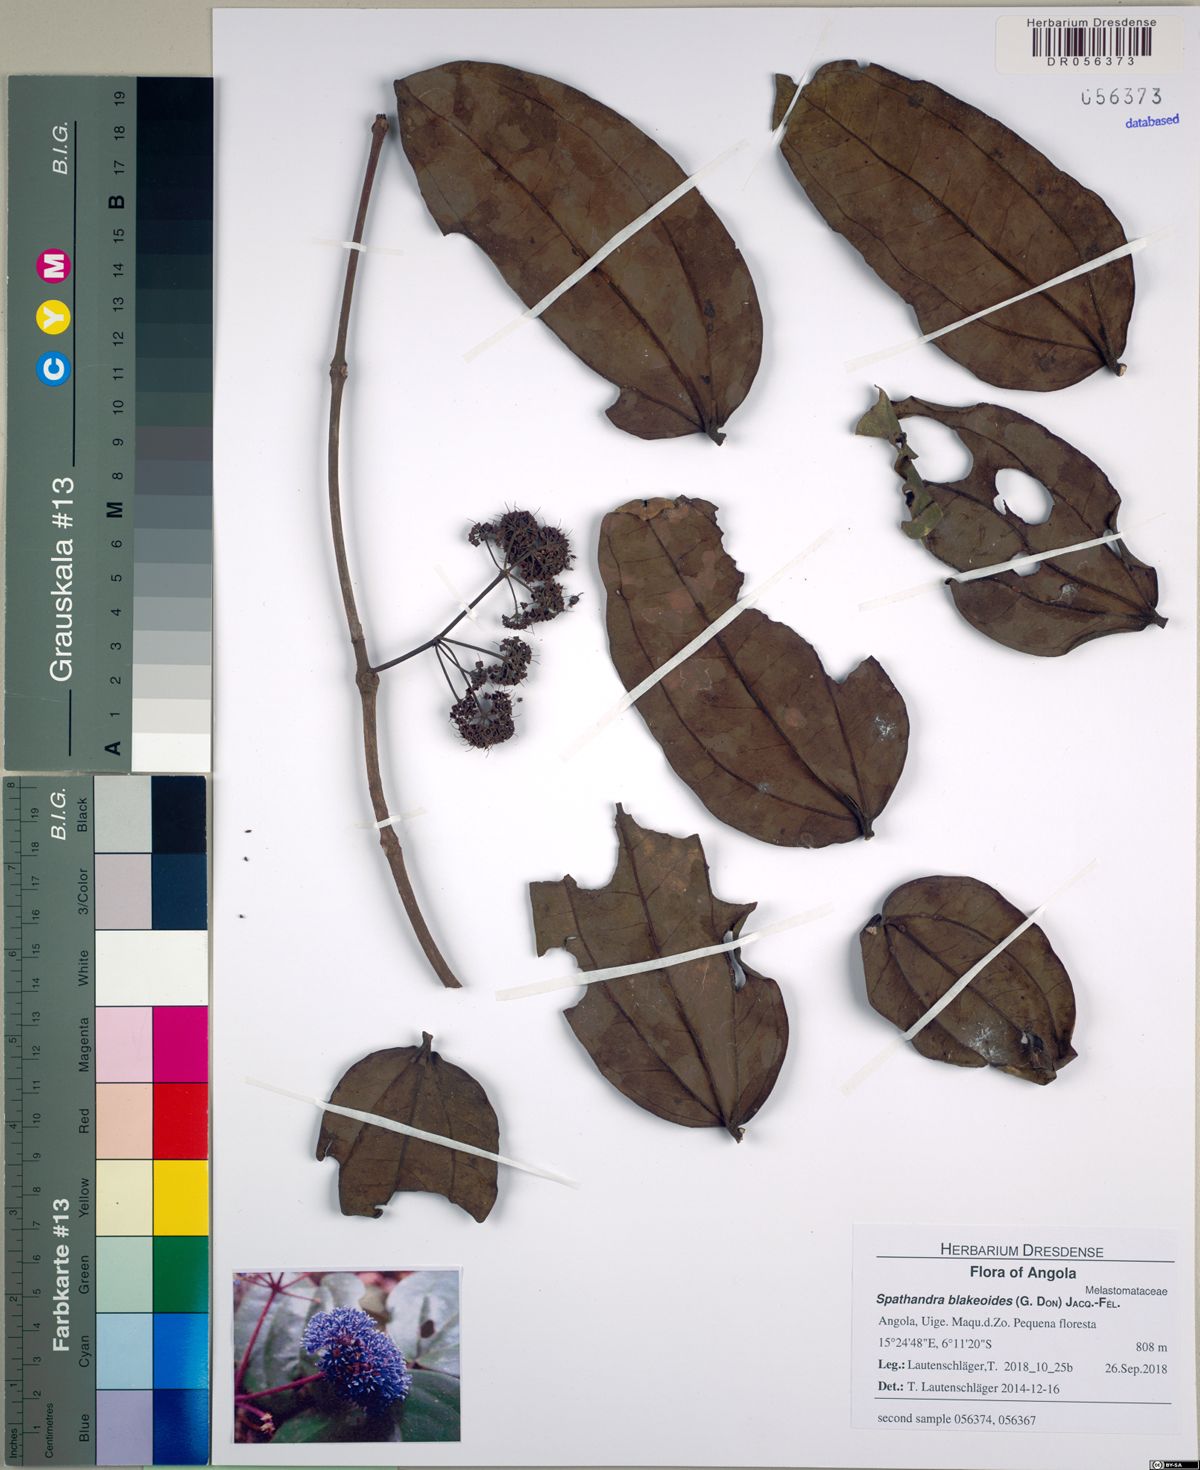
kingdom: Plantae
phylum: Tracheophyta
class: Magnoliopsida
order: Myrtales
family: Melastomataceae
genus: Spathandra
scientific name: Spathandra blakeoides
